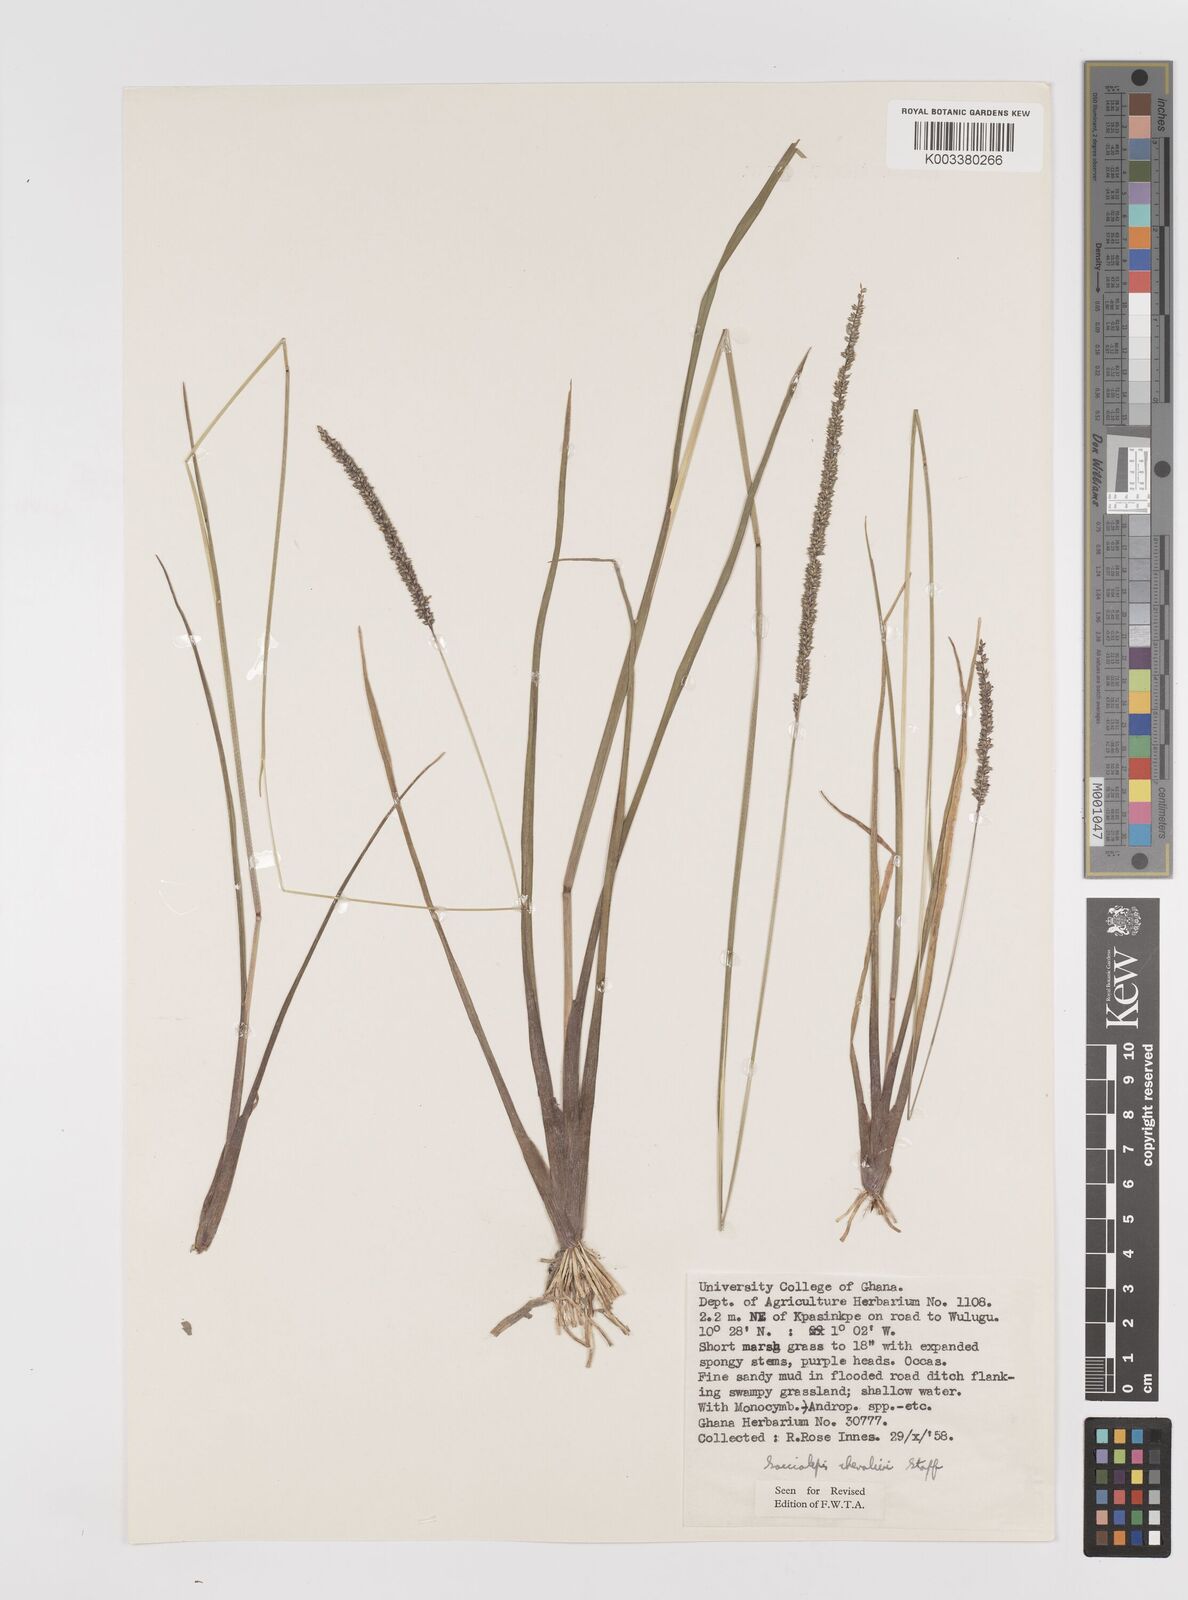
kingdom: Plantae
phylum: Tracheophyta
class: Liliopsida
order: Poales
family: Poaceae
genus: Sacciolepis
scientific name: Sacciolepis typhura
